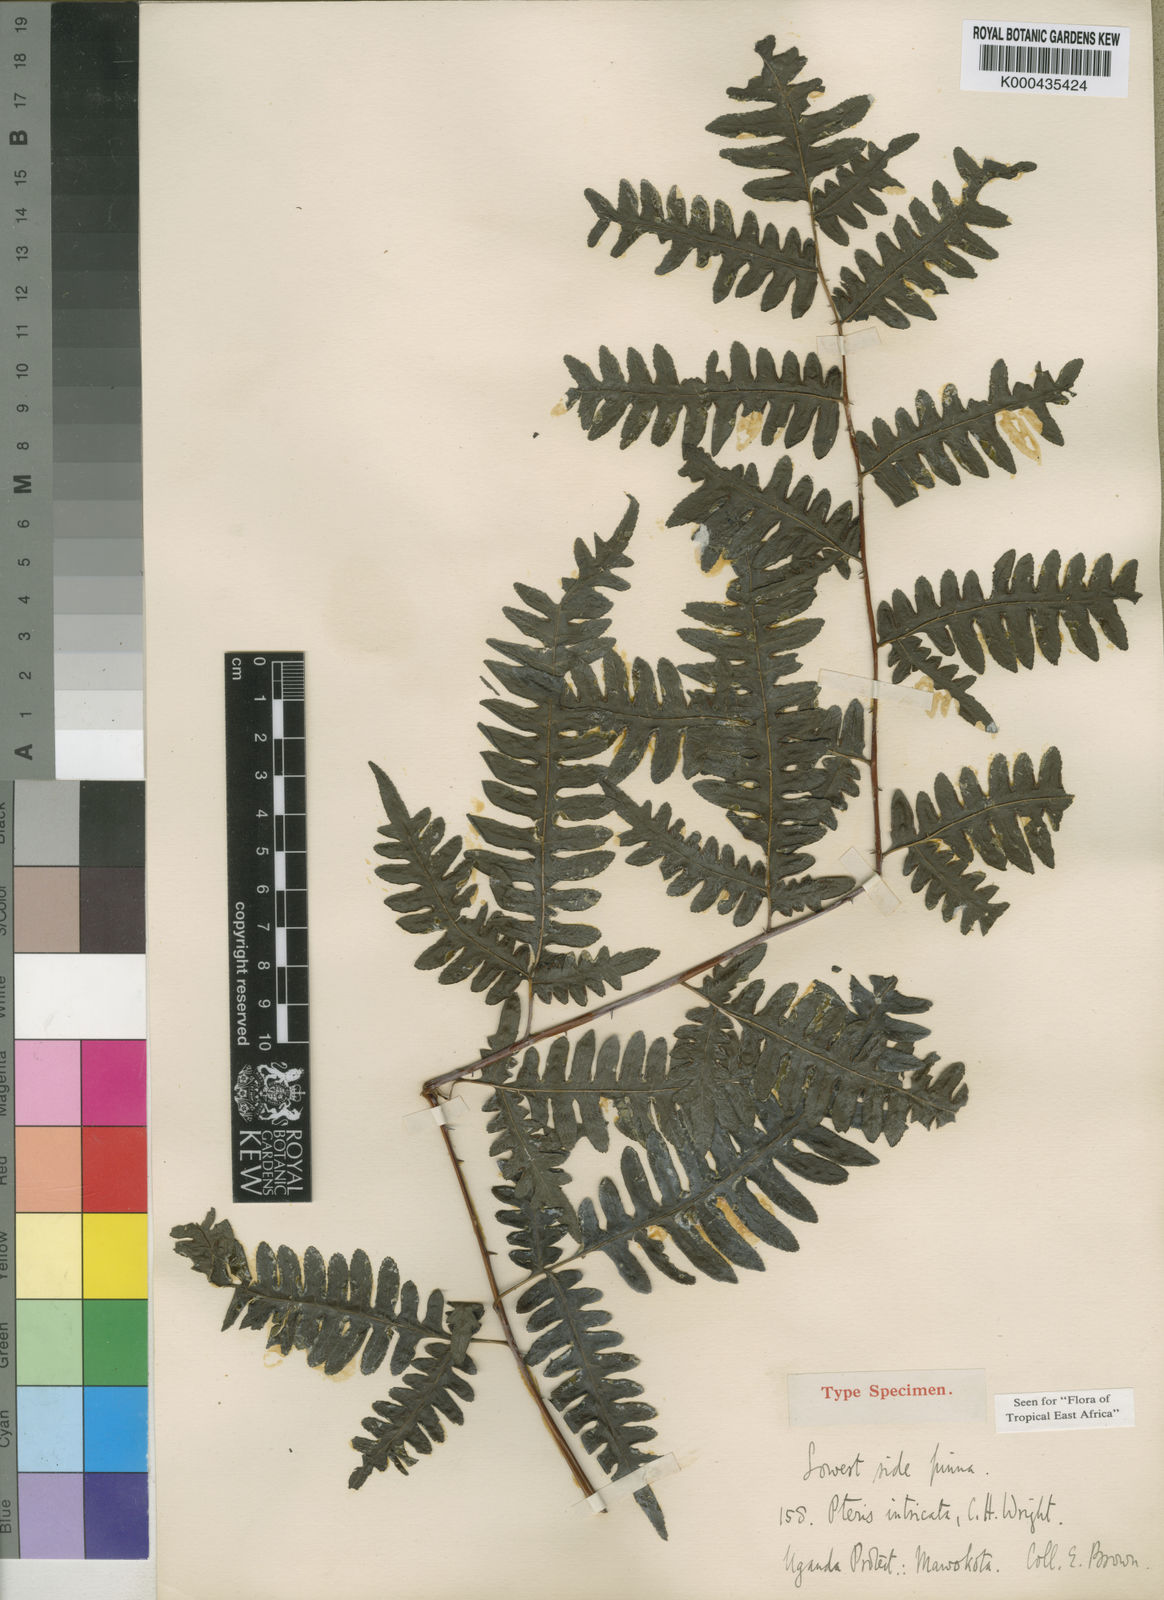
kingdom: Plantae
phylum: Tracheophyta
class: Polypodiopsida
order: Polypodiales
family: Pteridaceae
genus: Pteris
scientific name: Pteris intricata
